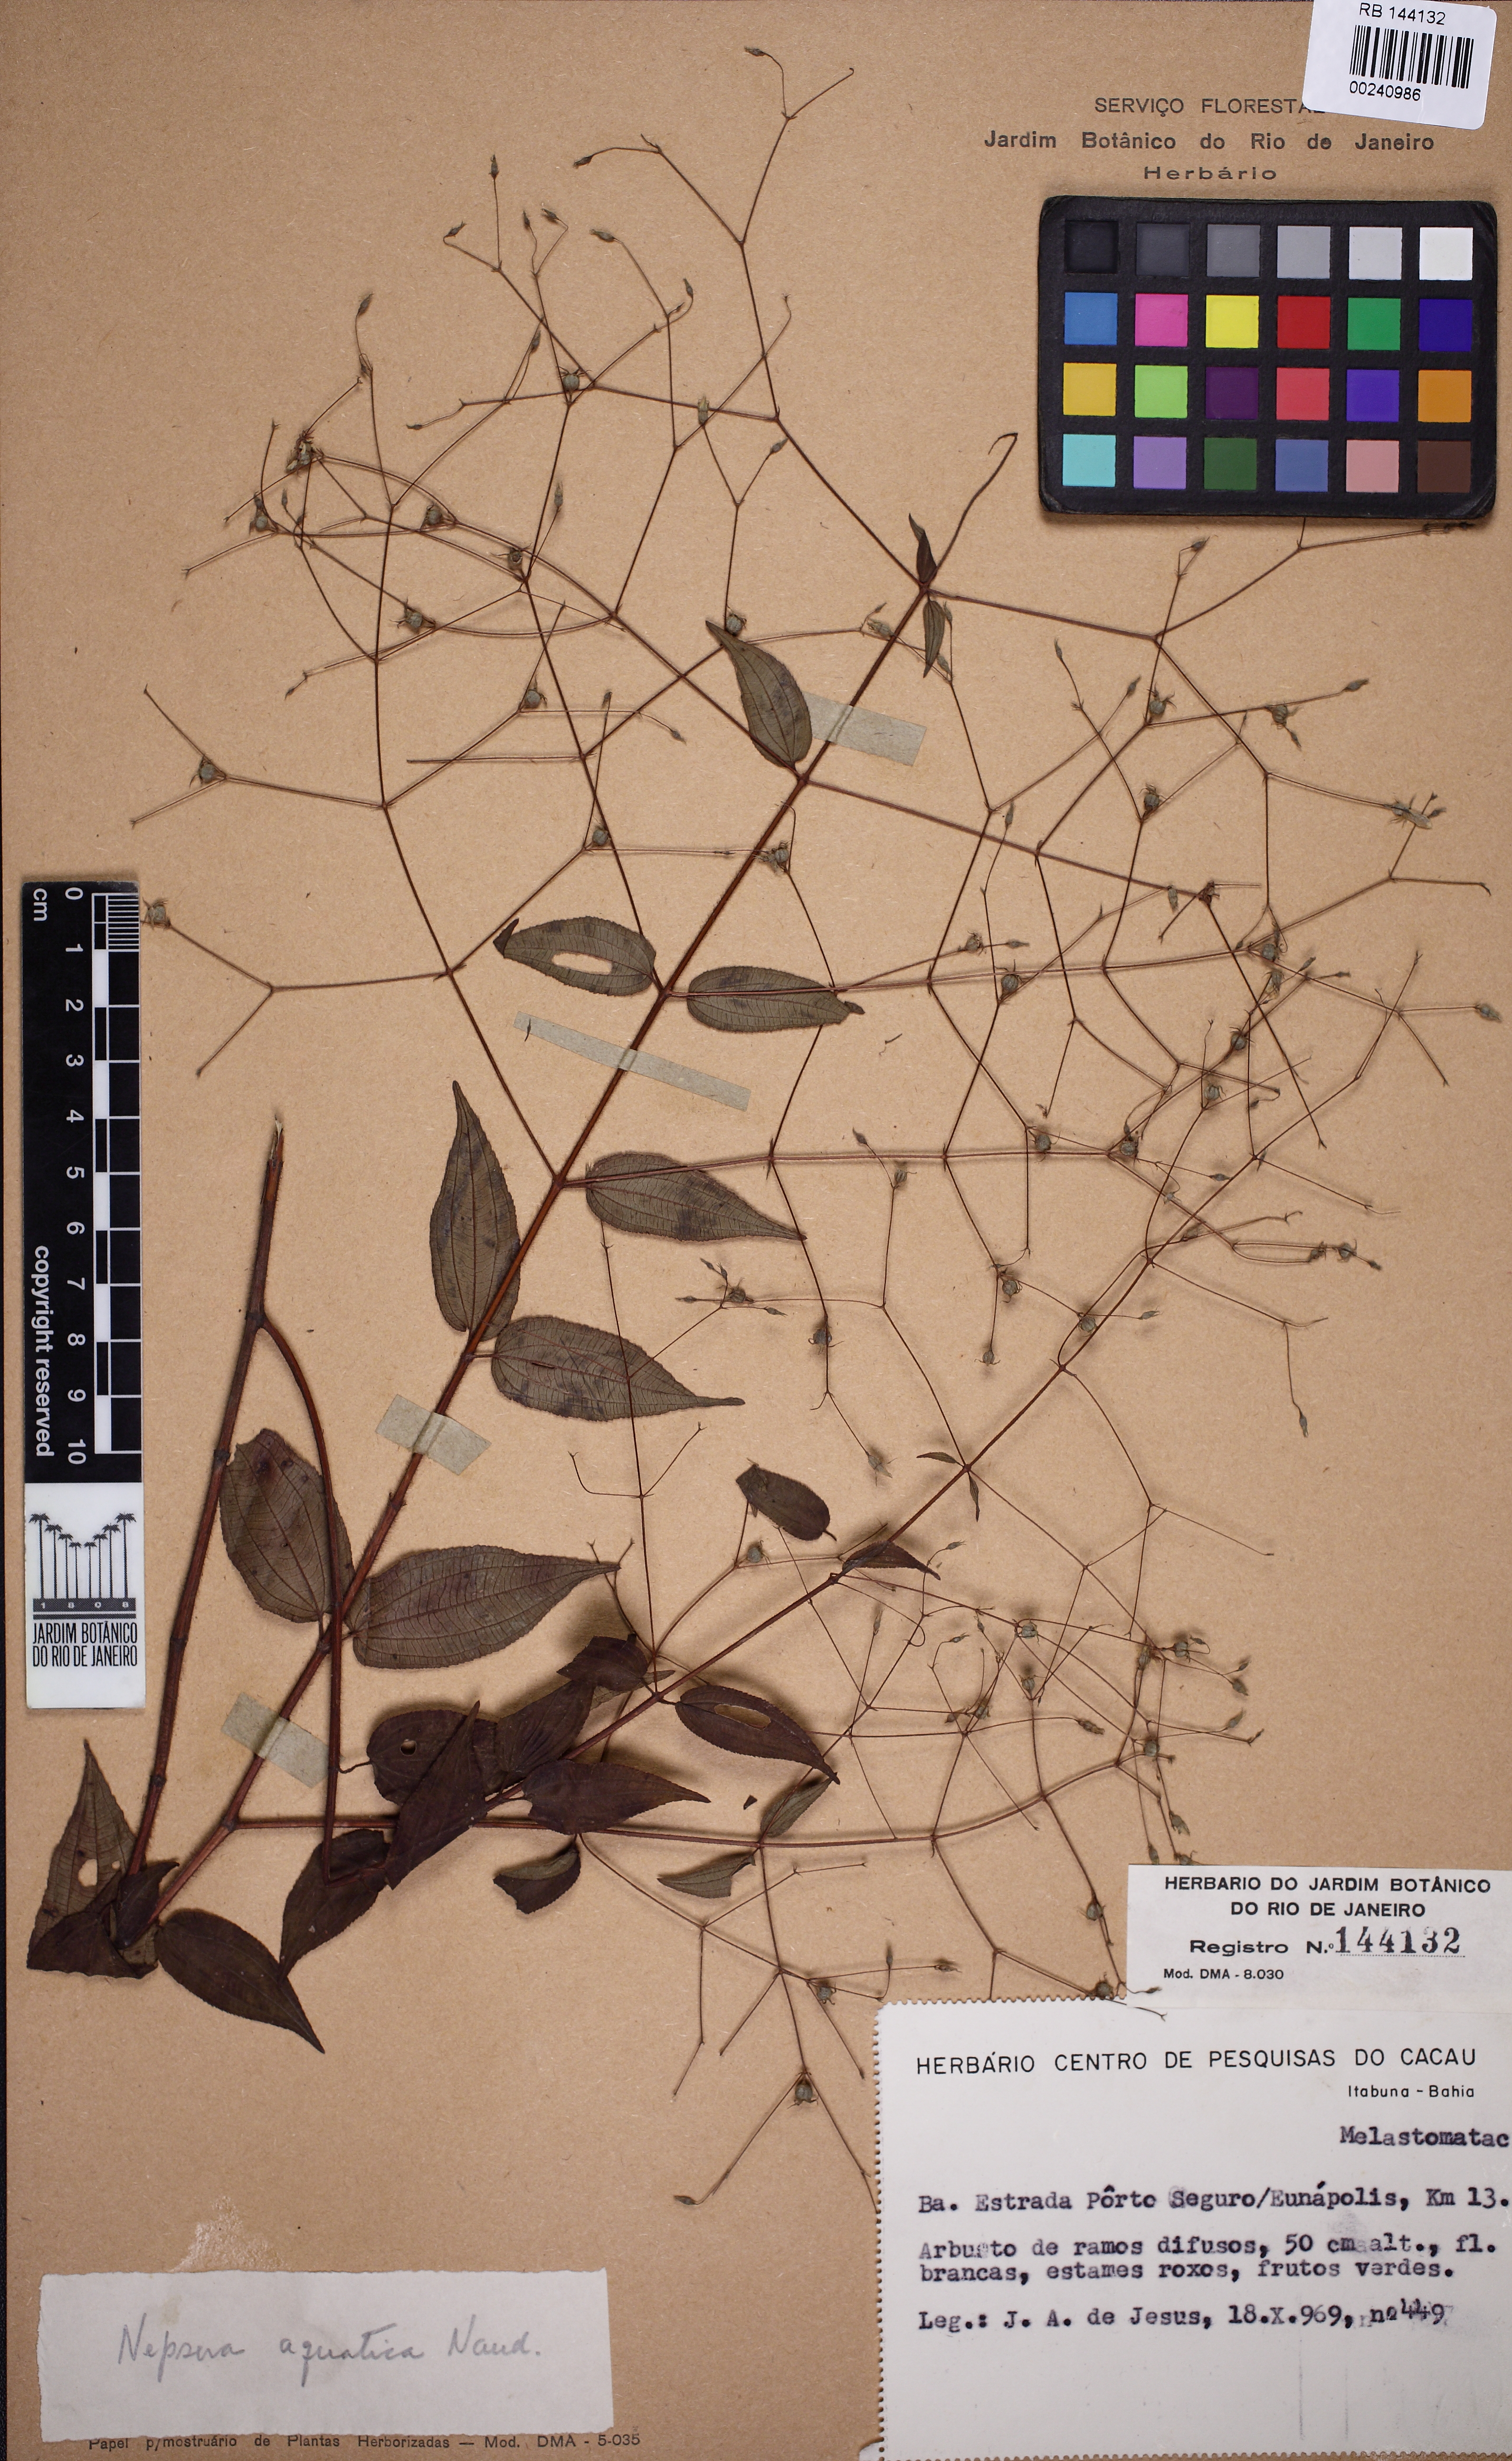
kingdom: Plantae
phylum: Tracheophyta
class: Magnoliopsida
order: Myrtales
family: Melastomataceae
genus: Nepsera
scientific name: Nepsera aquatica
